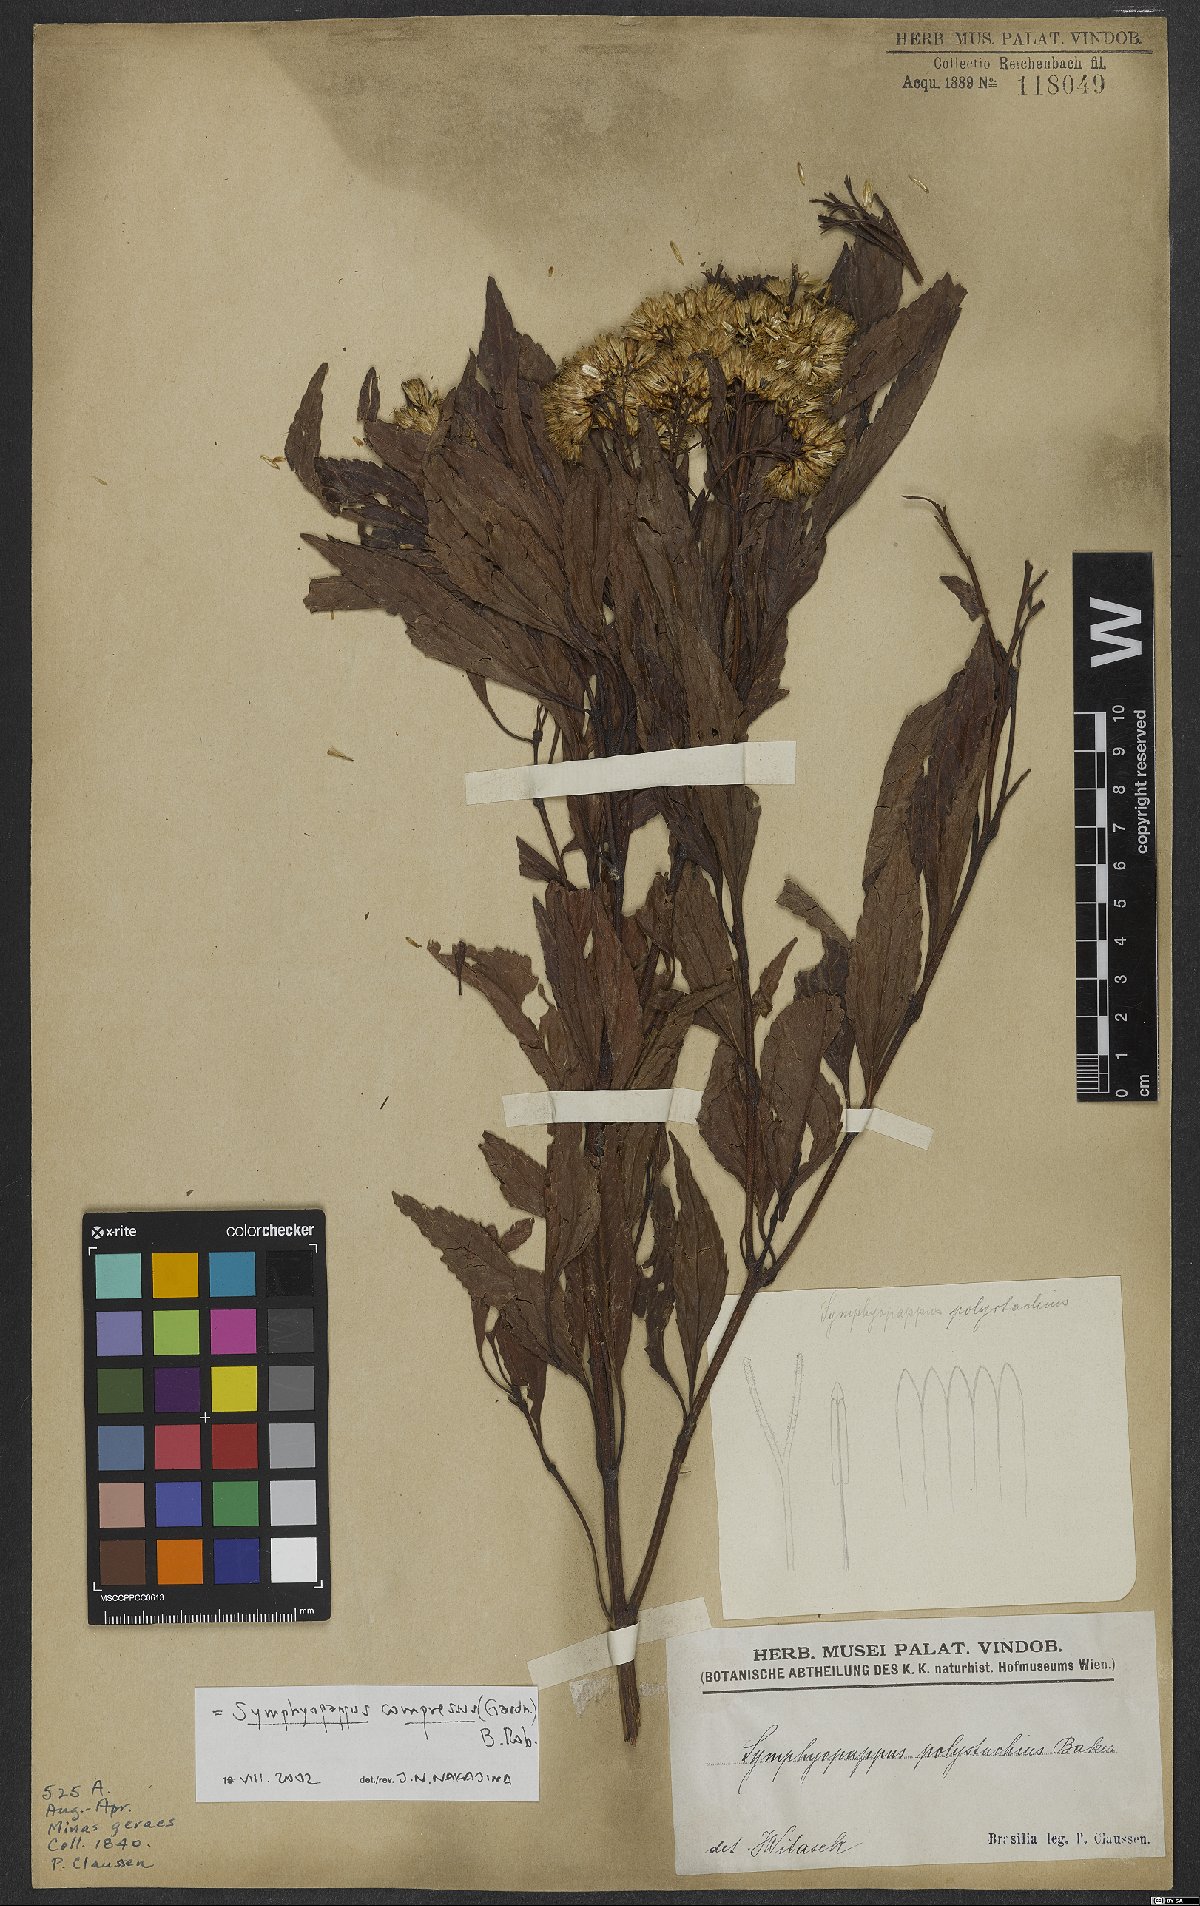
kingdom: Plantae
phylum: Tracheophyta
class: Magnoliopsida
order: Asterales
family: Asteraceae
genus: Symphyopappus
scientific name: Symphyopappus compressus
